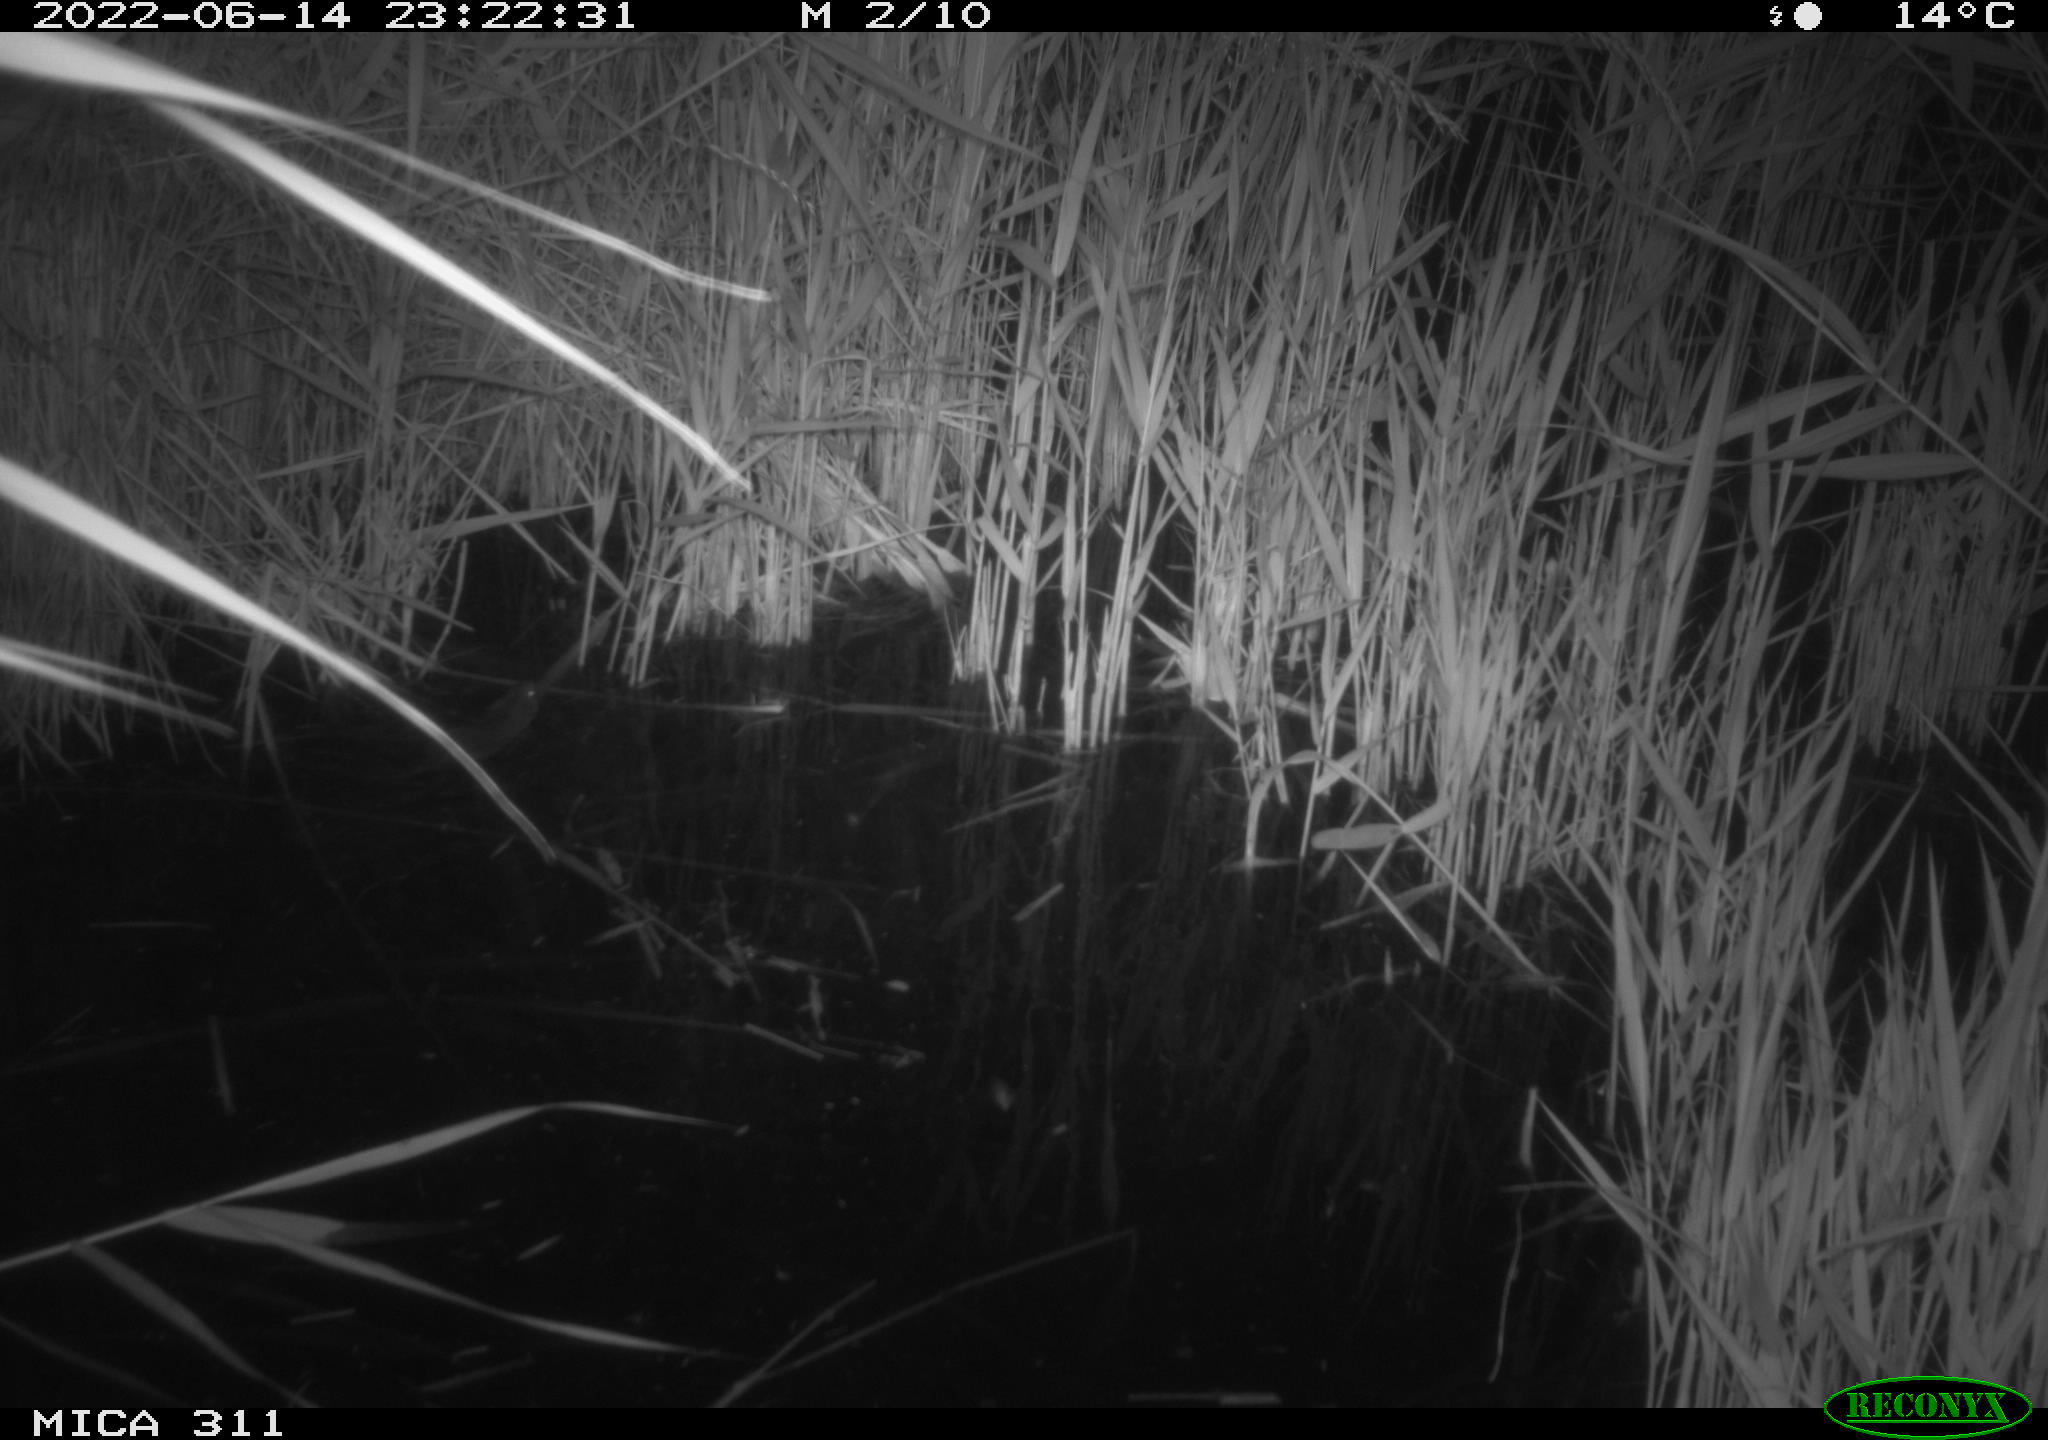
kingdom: Animalia
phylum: Chordata
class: Mammalia
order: Rodentia
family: Cricetidae
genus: Ondatra
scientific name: Ondatra zibethicus
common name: Muskrat
